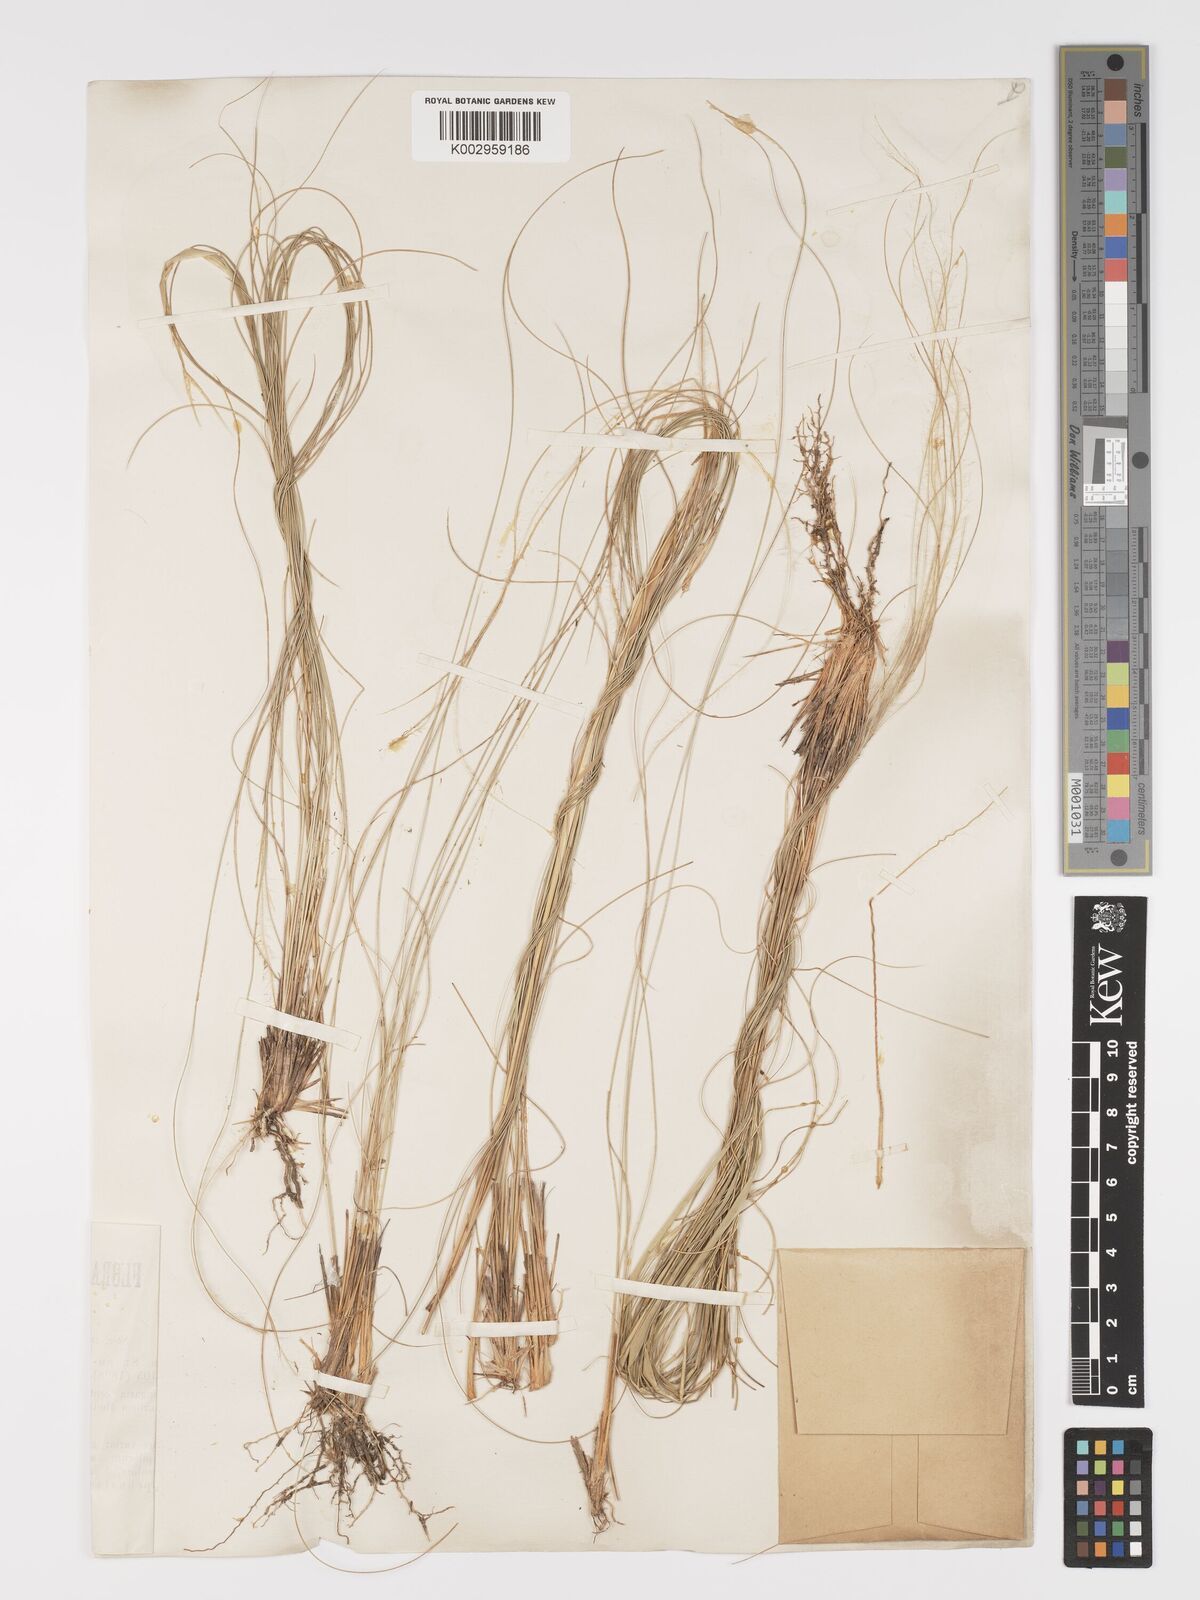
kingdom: Plantae
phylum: Tracheophyta
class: Liliopsida
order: Poales
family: Poaceae
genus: Stipa
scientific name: Stipa pennata
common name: European feather grass
